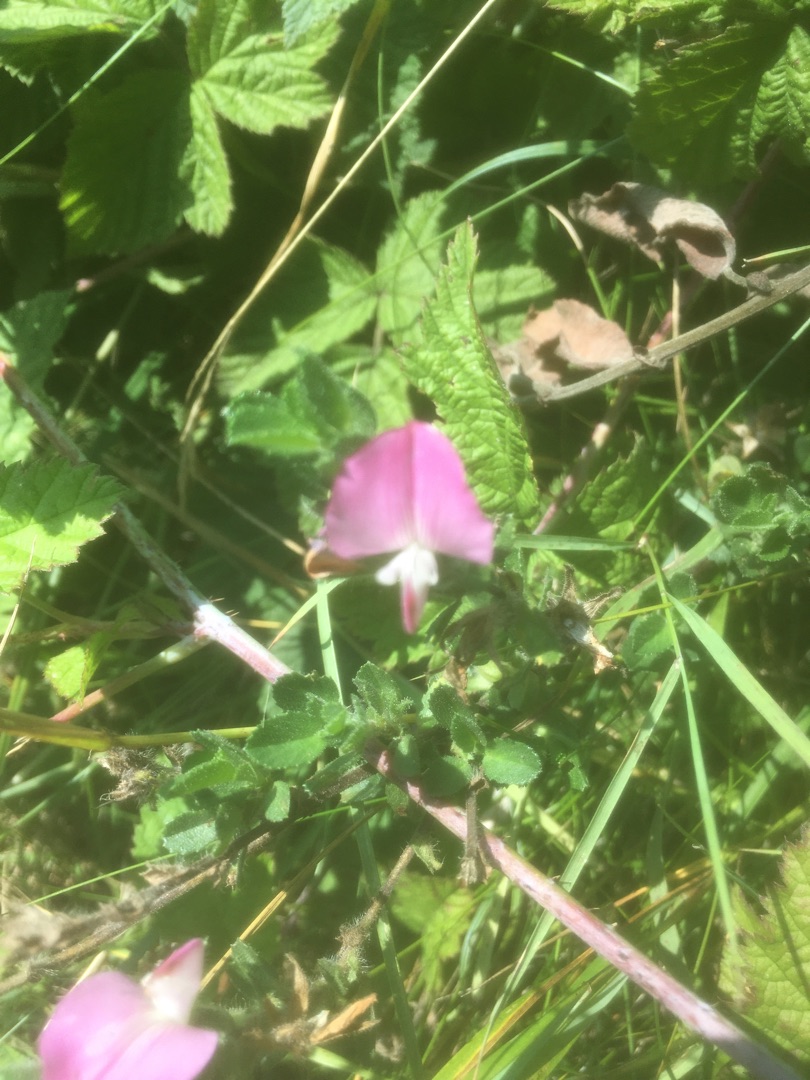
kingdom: Plantae
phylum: Tracheophyta
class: Magnoliopsida
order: Fabales
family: Fabaceae
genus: Ononis
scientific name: Ononis spinosa
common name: Mark-krageklo
